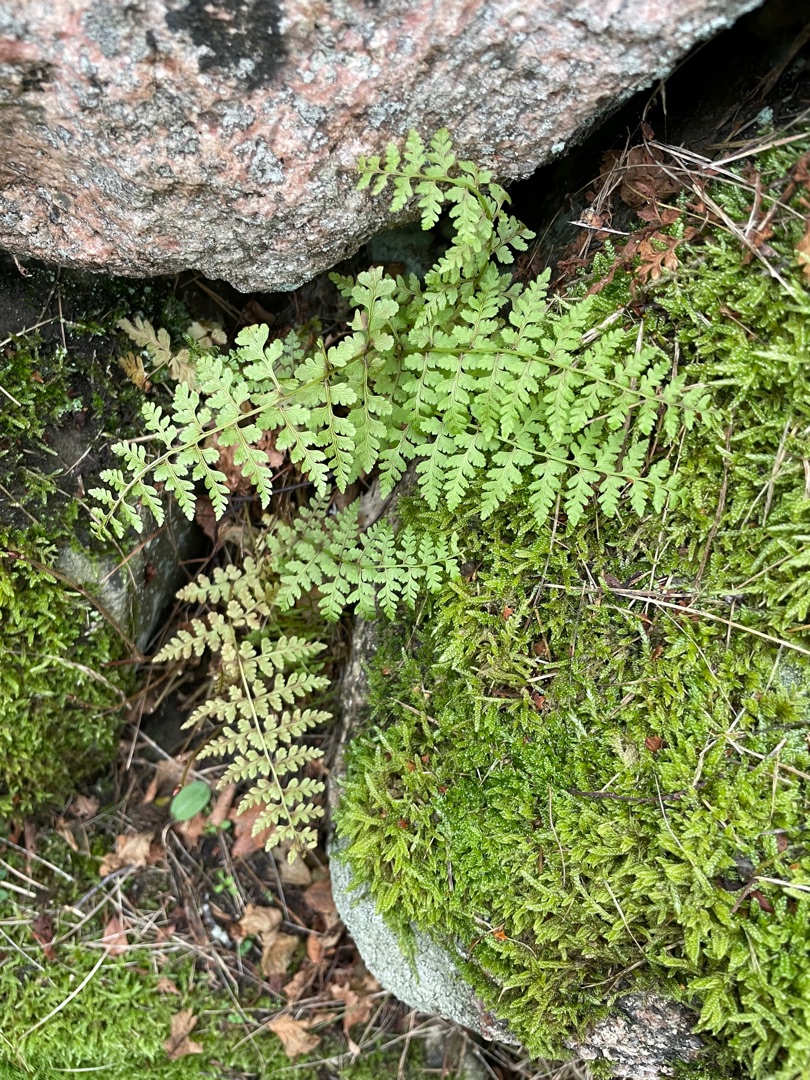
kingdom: Plantae
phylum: Tracheophyta
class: Polypodiopsida
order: Polypodiales
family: Cystopteridaceae
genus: Cystopteris
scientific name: Cystopteris fragilis
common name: Bægerbregne
